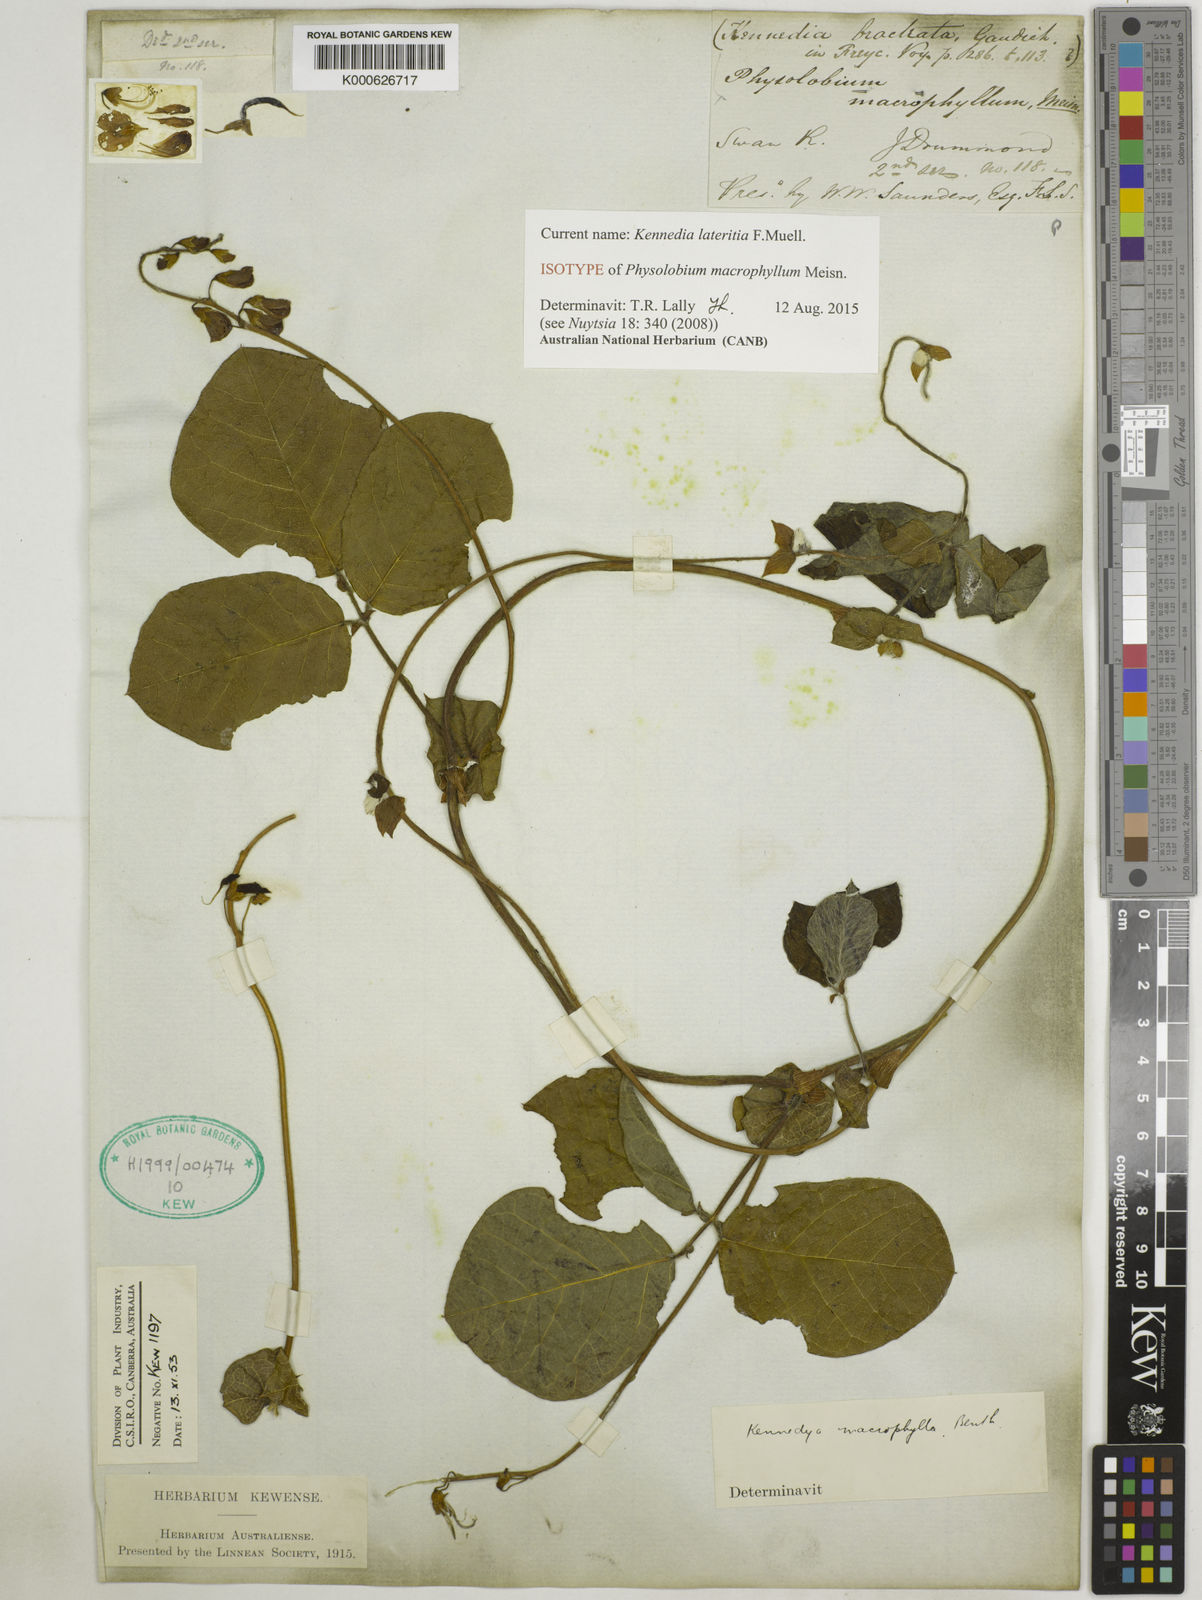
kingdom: Plantae
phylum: Tracheophyta
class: Magnoliopsida
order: Fabales
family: Fabaceae
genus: Kennedia
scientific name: Kennedia lateritia
